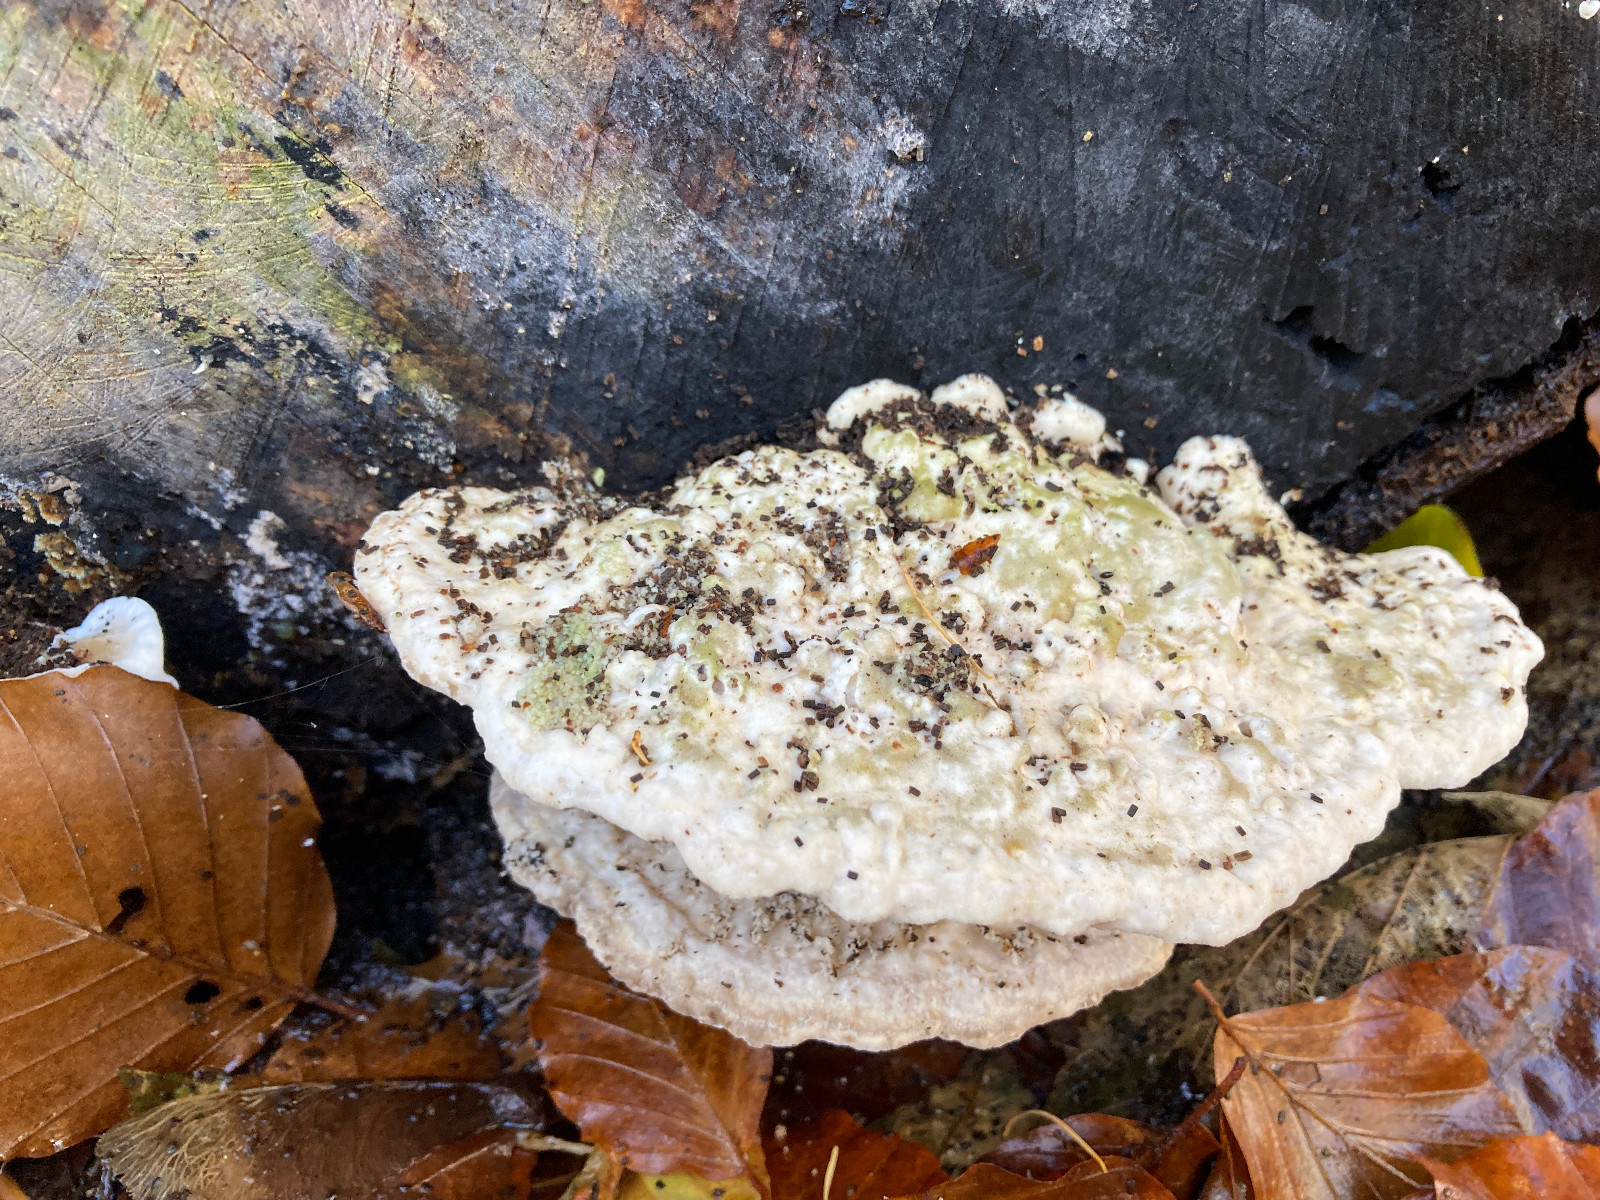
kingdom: Fungi
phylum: Basidiomycota
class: Agaricomycetes
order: Polyporales
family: Polyporaceae
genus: Trametes
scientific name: Trametes gibbosa
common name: puklet læderporesvamp
